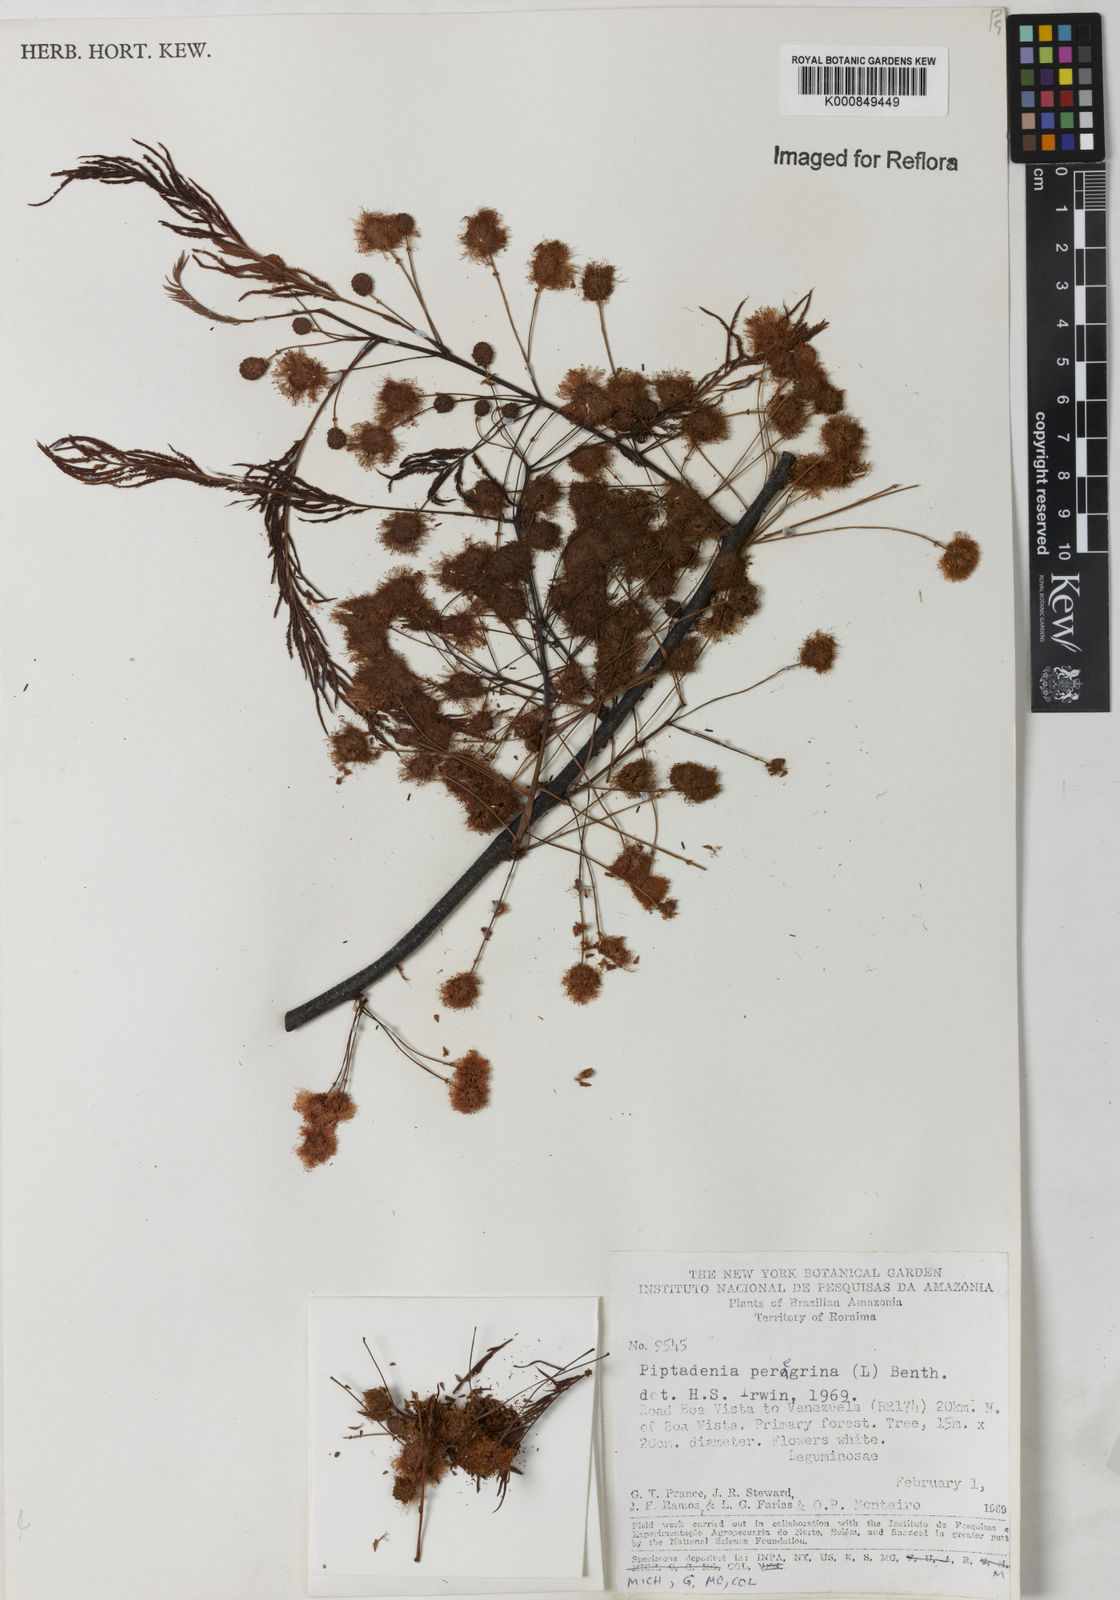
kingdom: Plantae
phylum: Tracheophyta
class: Magnoliopsida
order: Fabales
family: Fabaceae
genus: Anadenanthera
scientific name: Anadenanthera peregrina
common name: Cohoba
